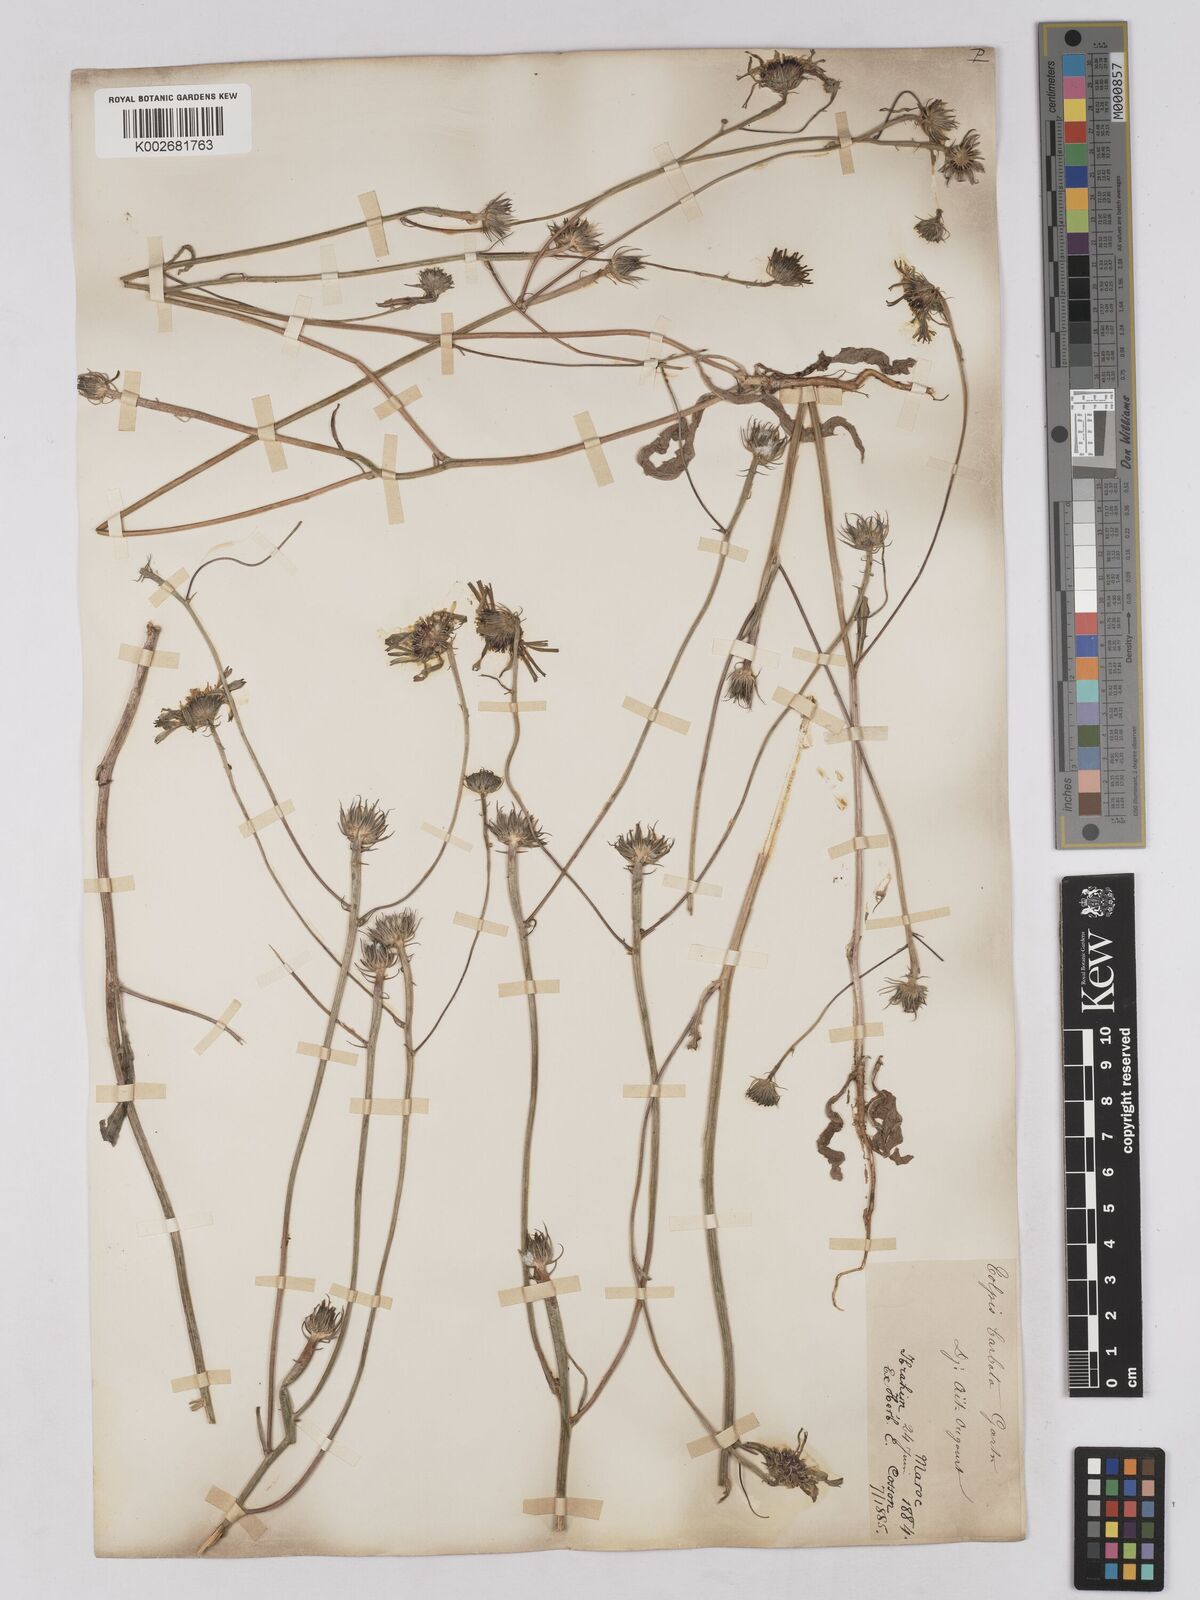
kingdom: Plantae
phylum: Tracheophyta
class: Magnoliopsida
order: Asterales
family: Asteraceae
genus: Tolpis
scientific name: Tolpis barbata
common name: Yellow hawkweed
